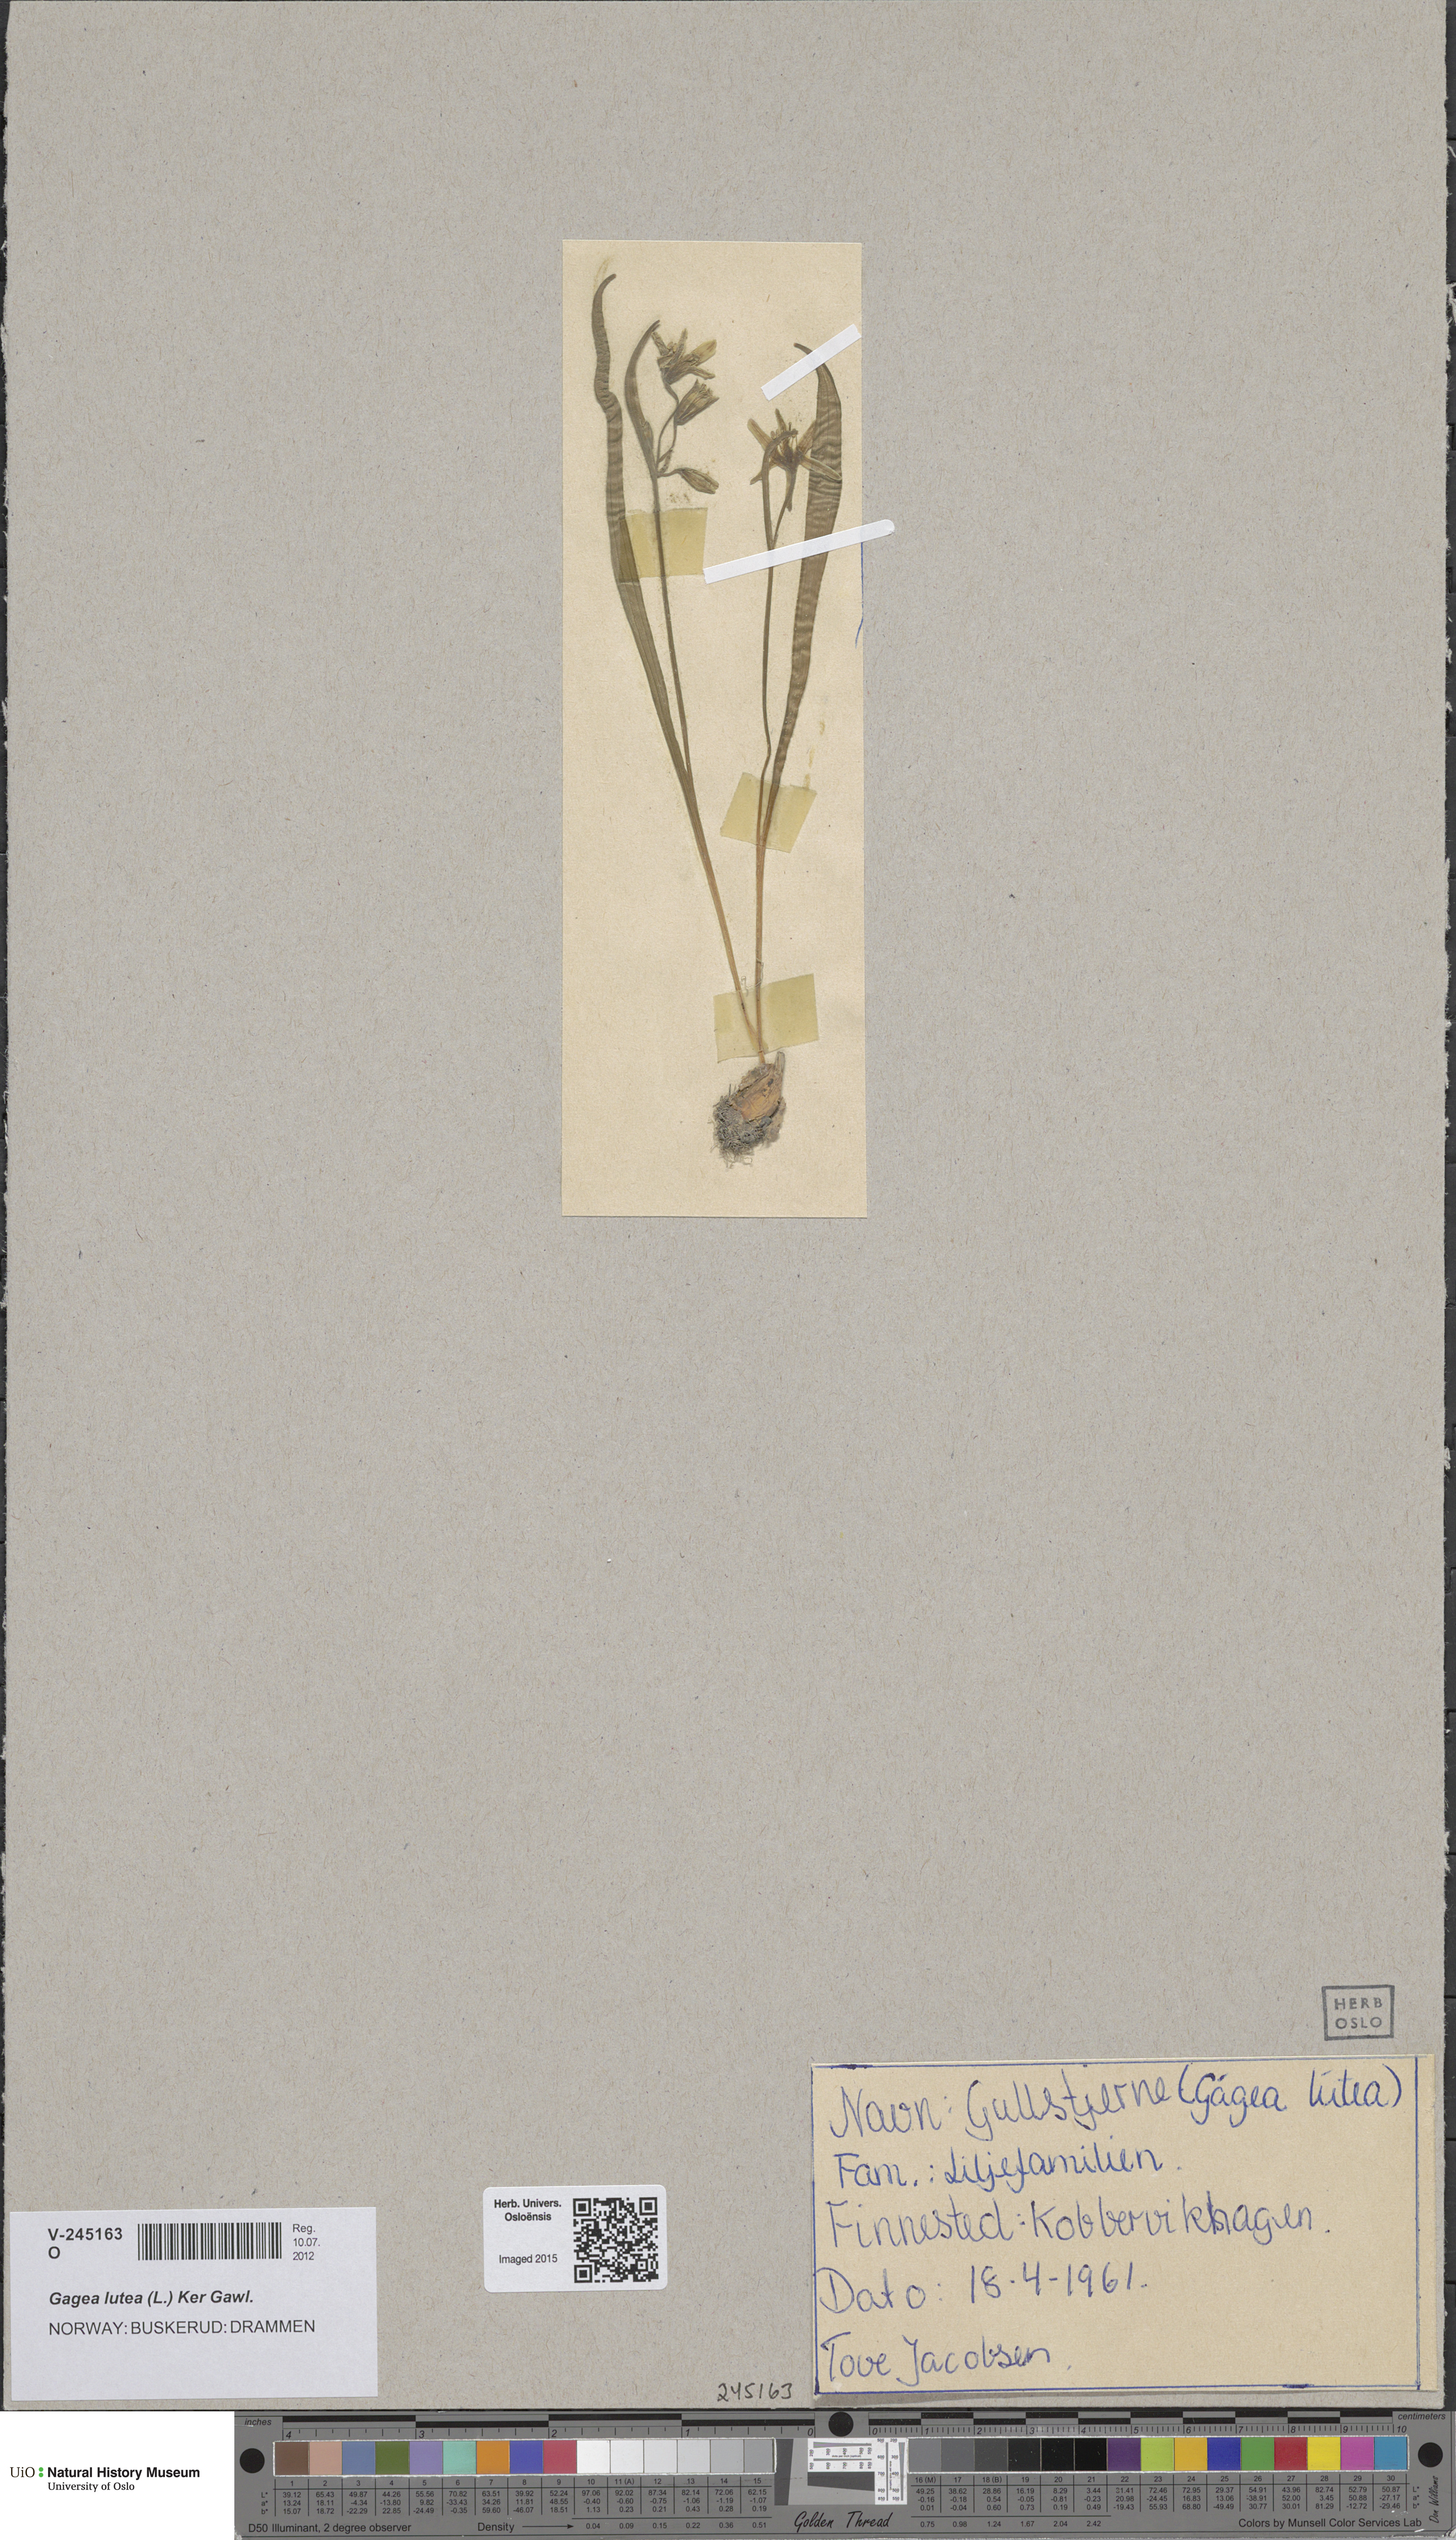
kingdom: Plantae
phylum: Tracheophyta
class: Liliopsida
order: Liliales
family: Liliaceae
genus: Gagea
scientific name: Gagea lutea
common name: Yellow star-of-bethlehem
